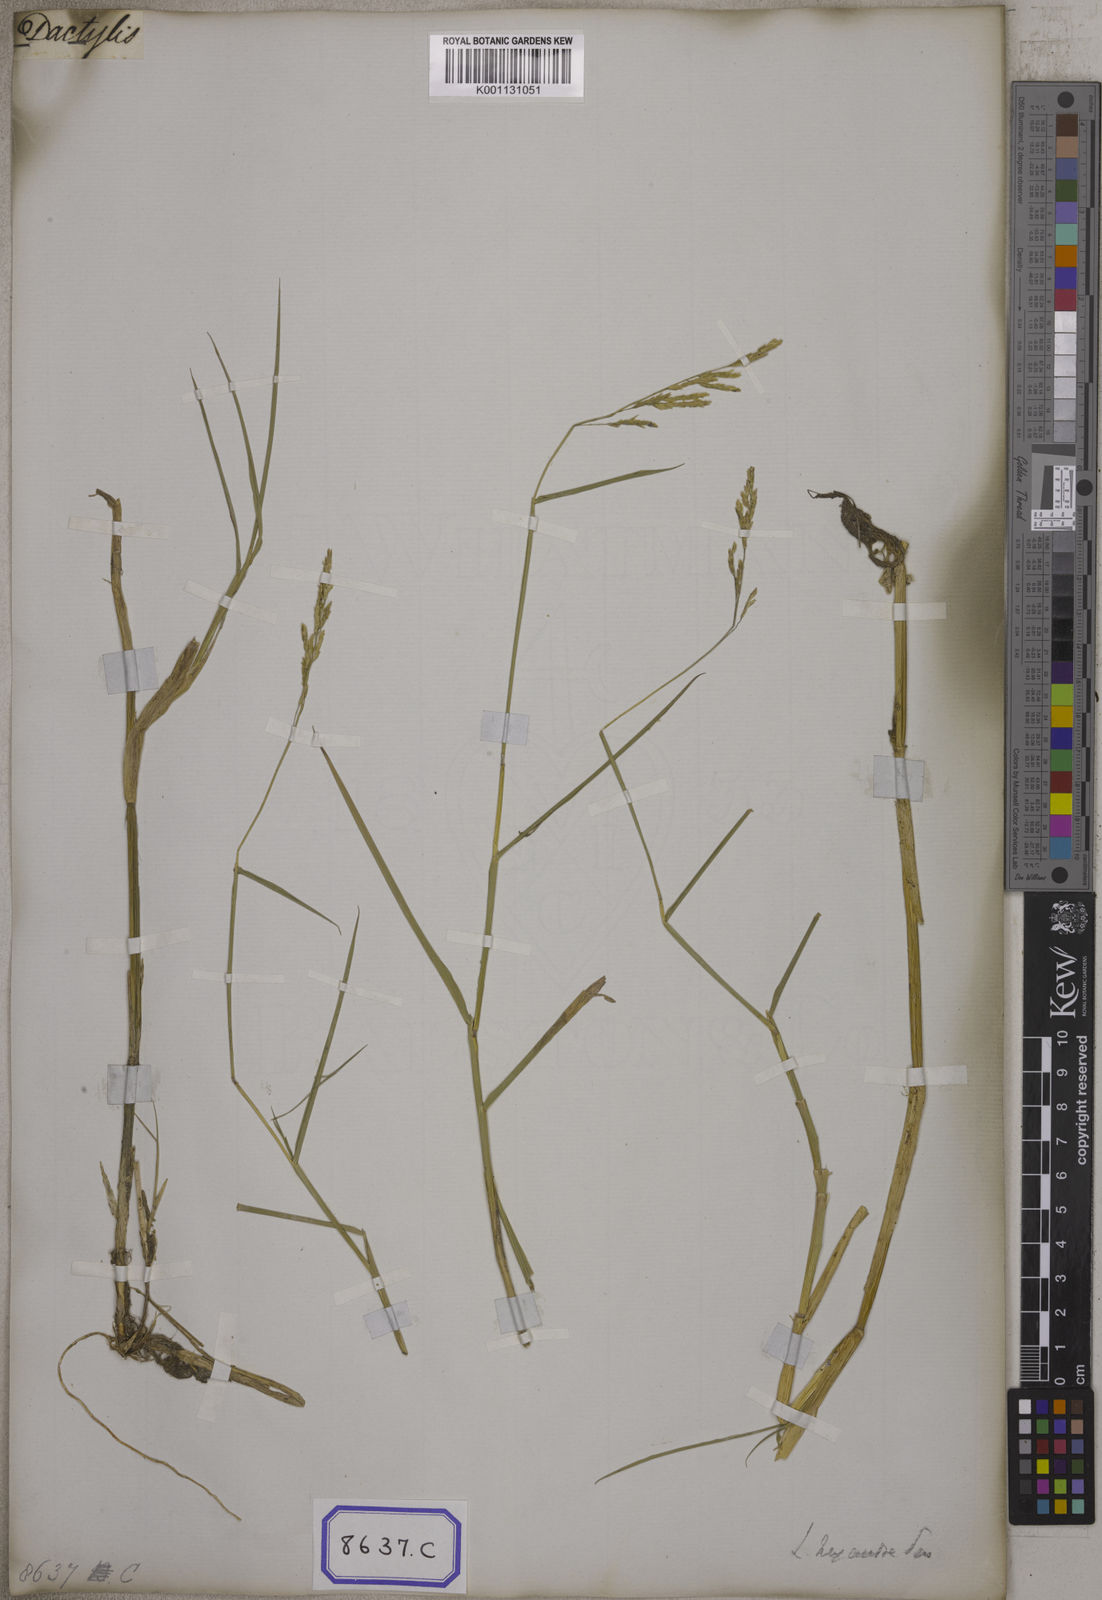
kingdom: Plantae
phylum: Tracheophyta
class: Liliopsida
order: Poales
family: Poaceae
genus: Leersia
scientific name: Leersia oryzoides
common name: Cut-grass
